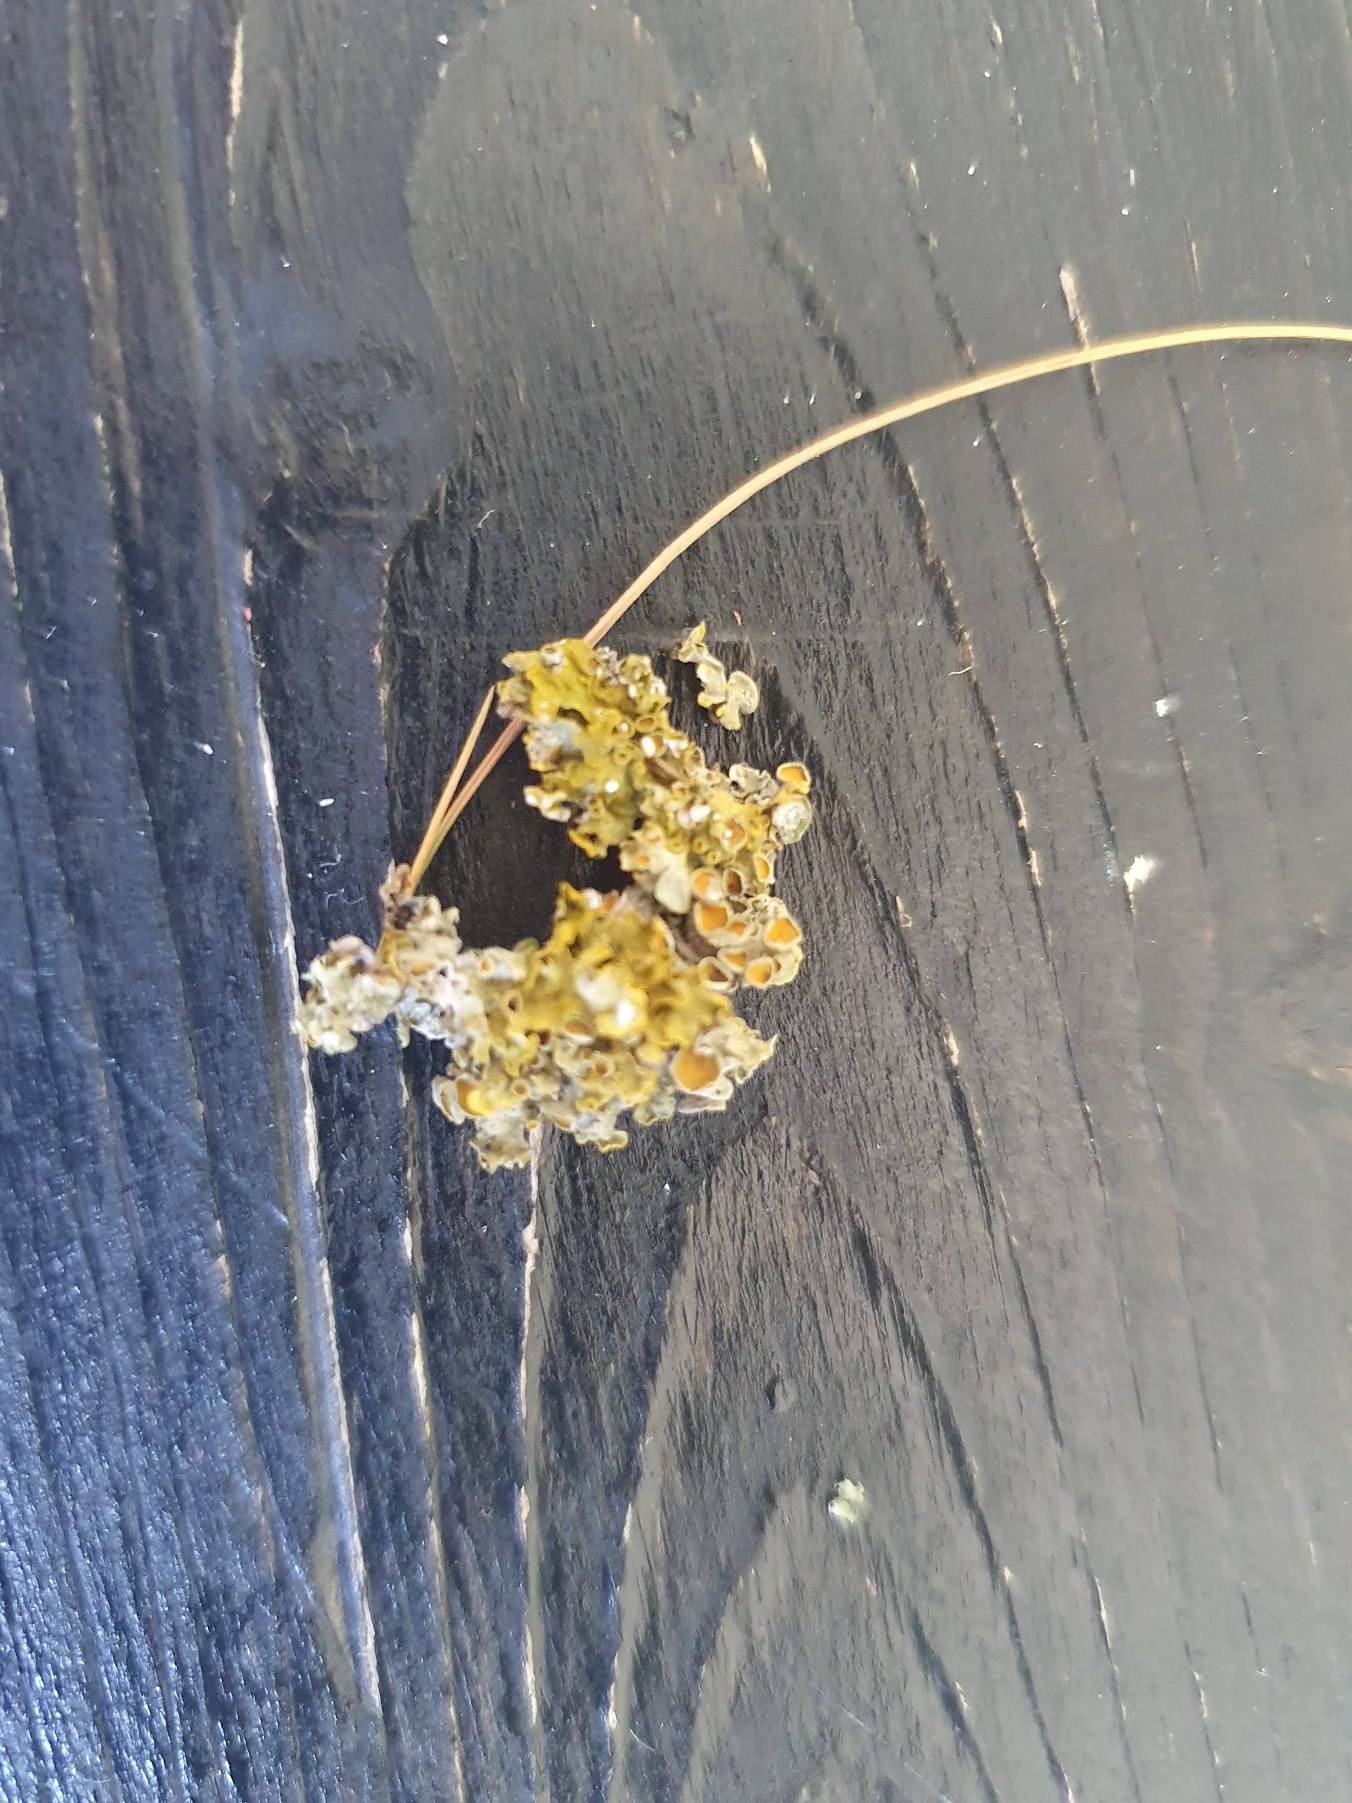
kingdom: Fungi
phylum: Ascomycota
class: Lecanoromycetes
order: Caliciales
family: Physciaceae
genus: Physcia
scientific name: Physcia tenella
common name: Spæd rosetlav
